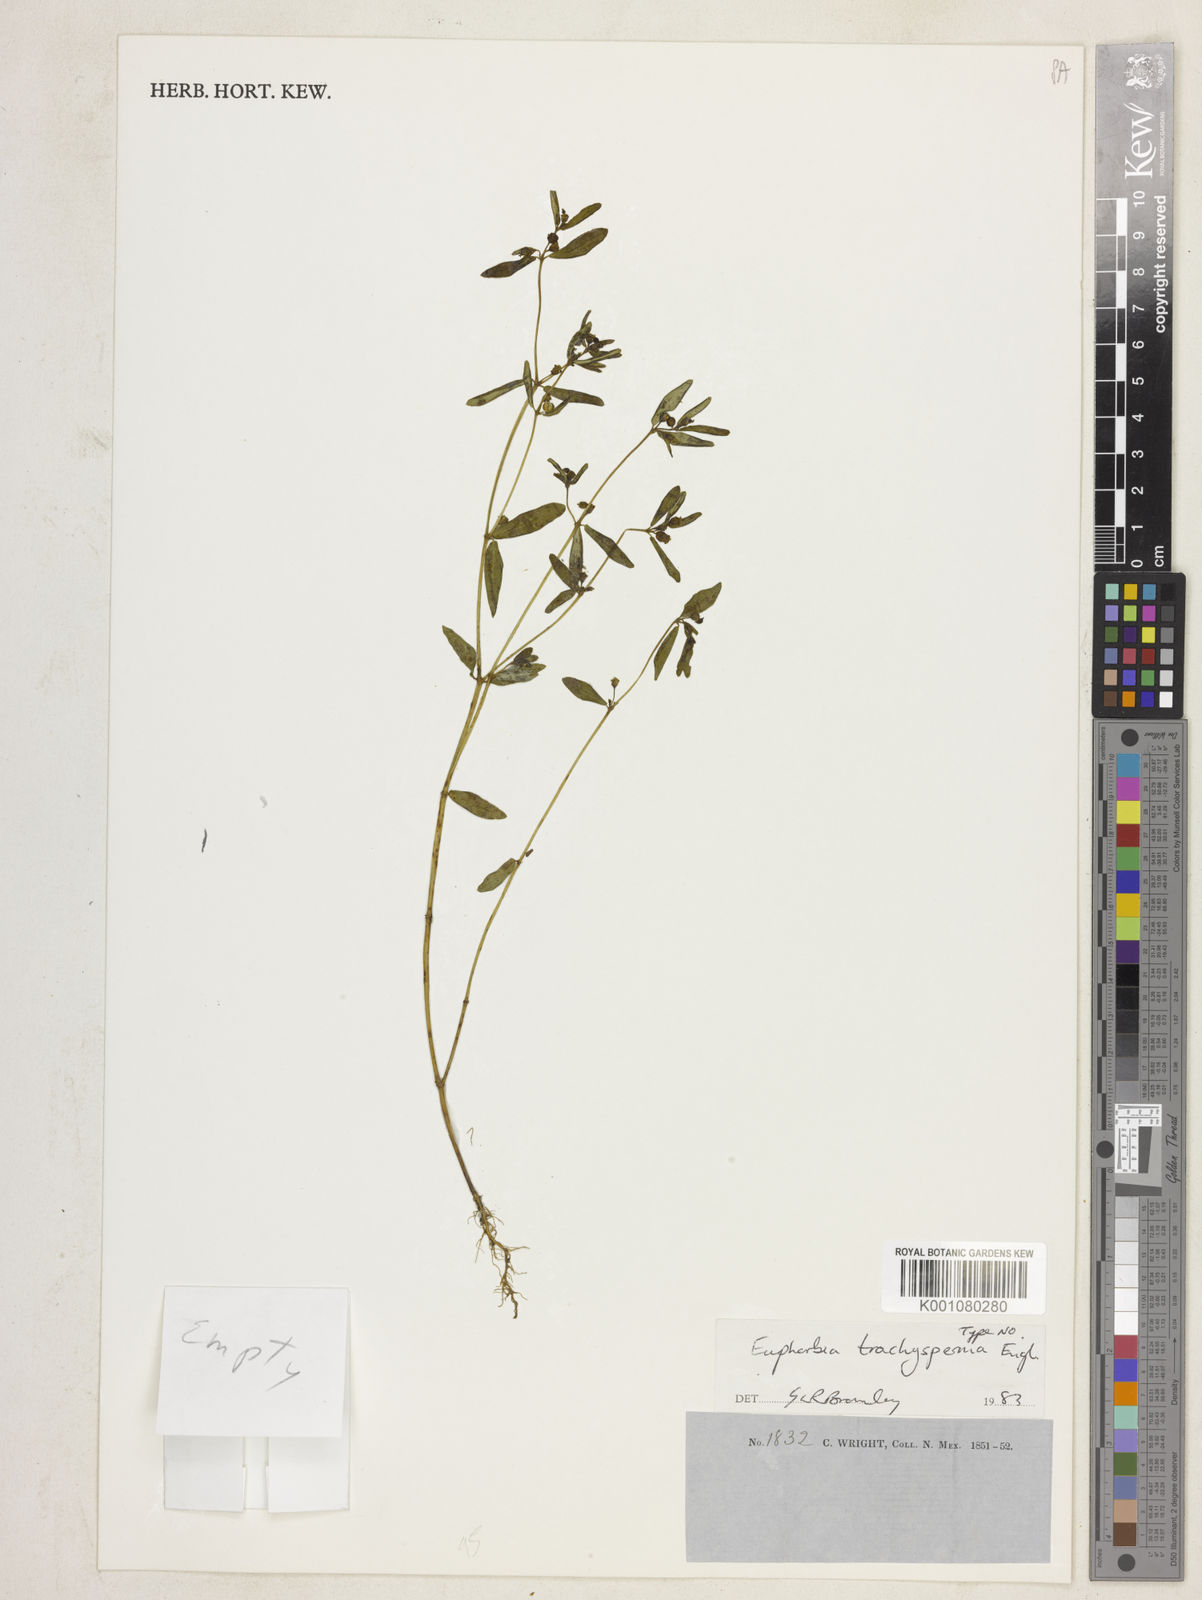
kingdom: Plantae
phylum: Tracheophyta
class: Magnoliopsida
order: Malpighiales
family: Euphorbiaceae
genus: Euphorbia
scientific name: Euphorbia trachysperma
